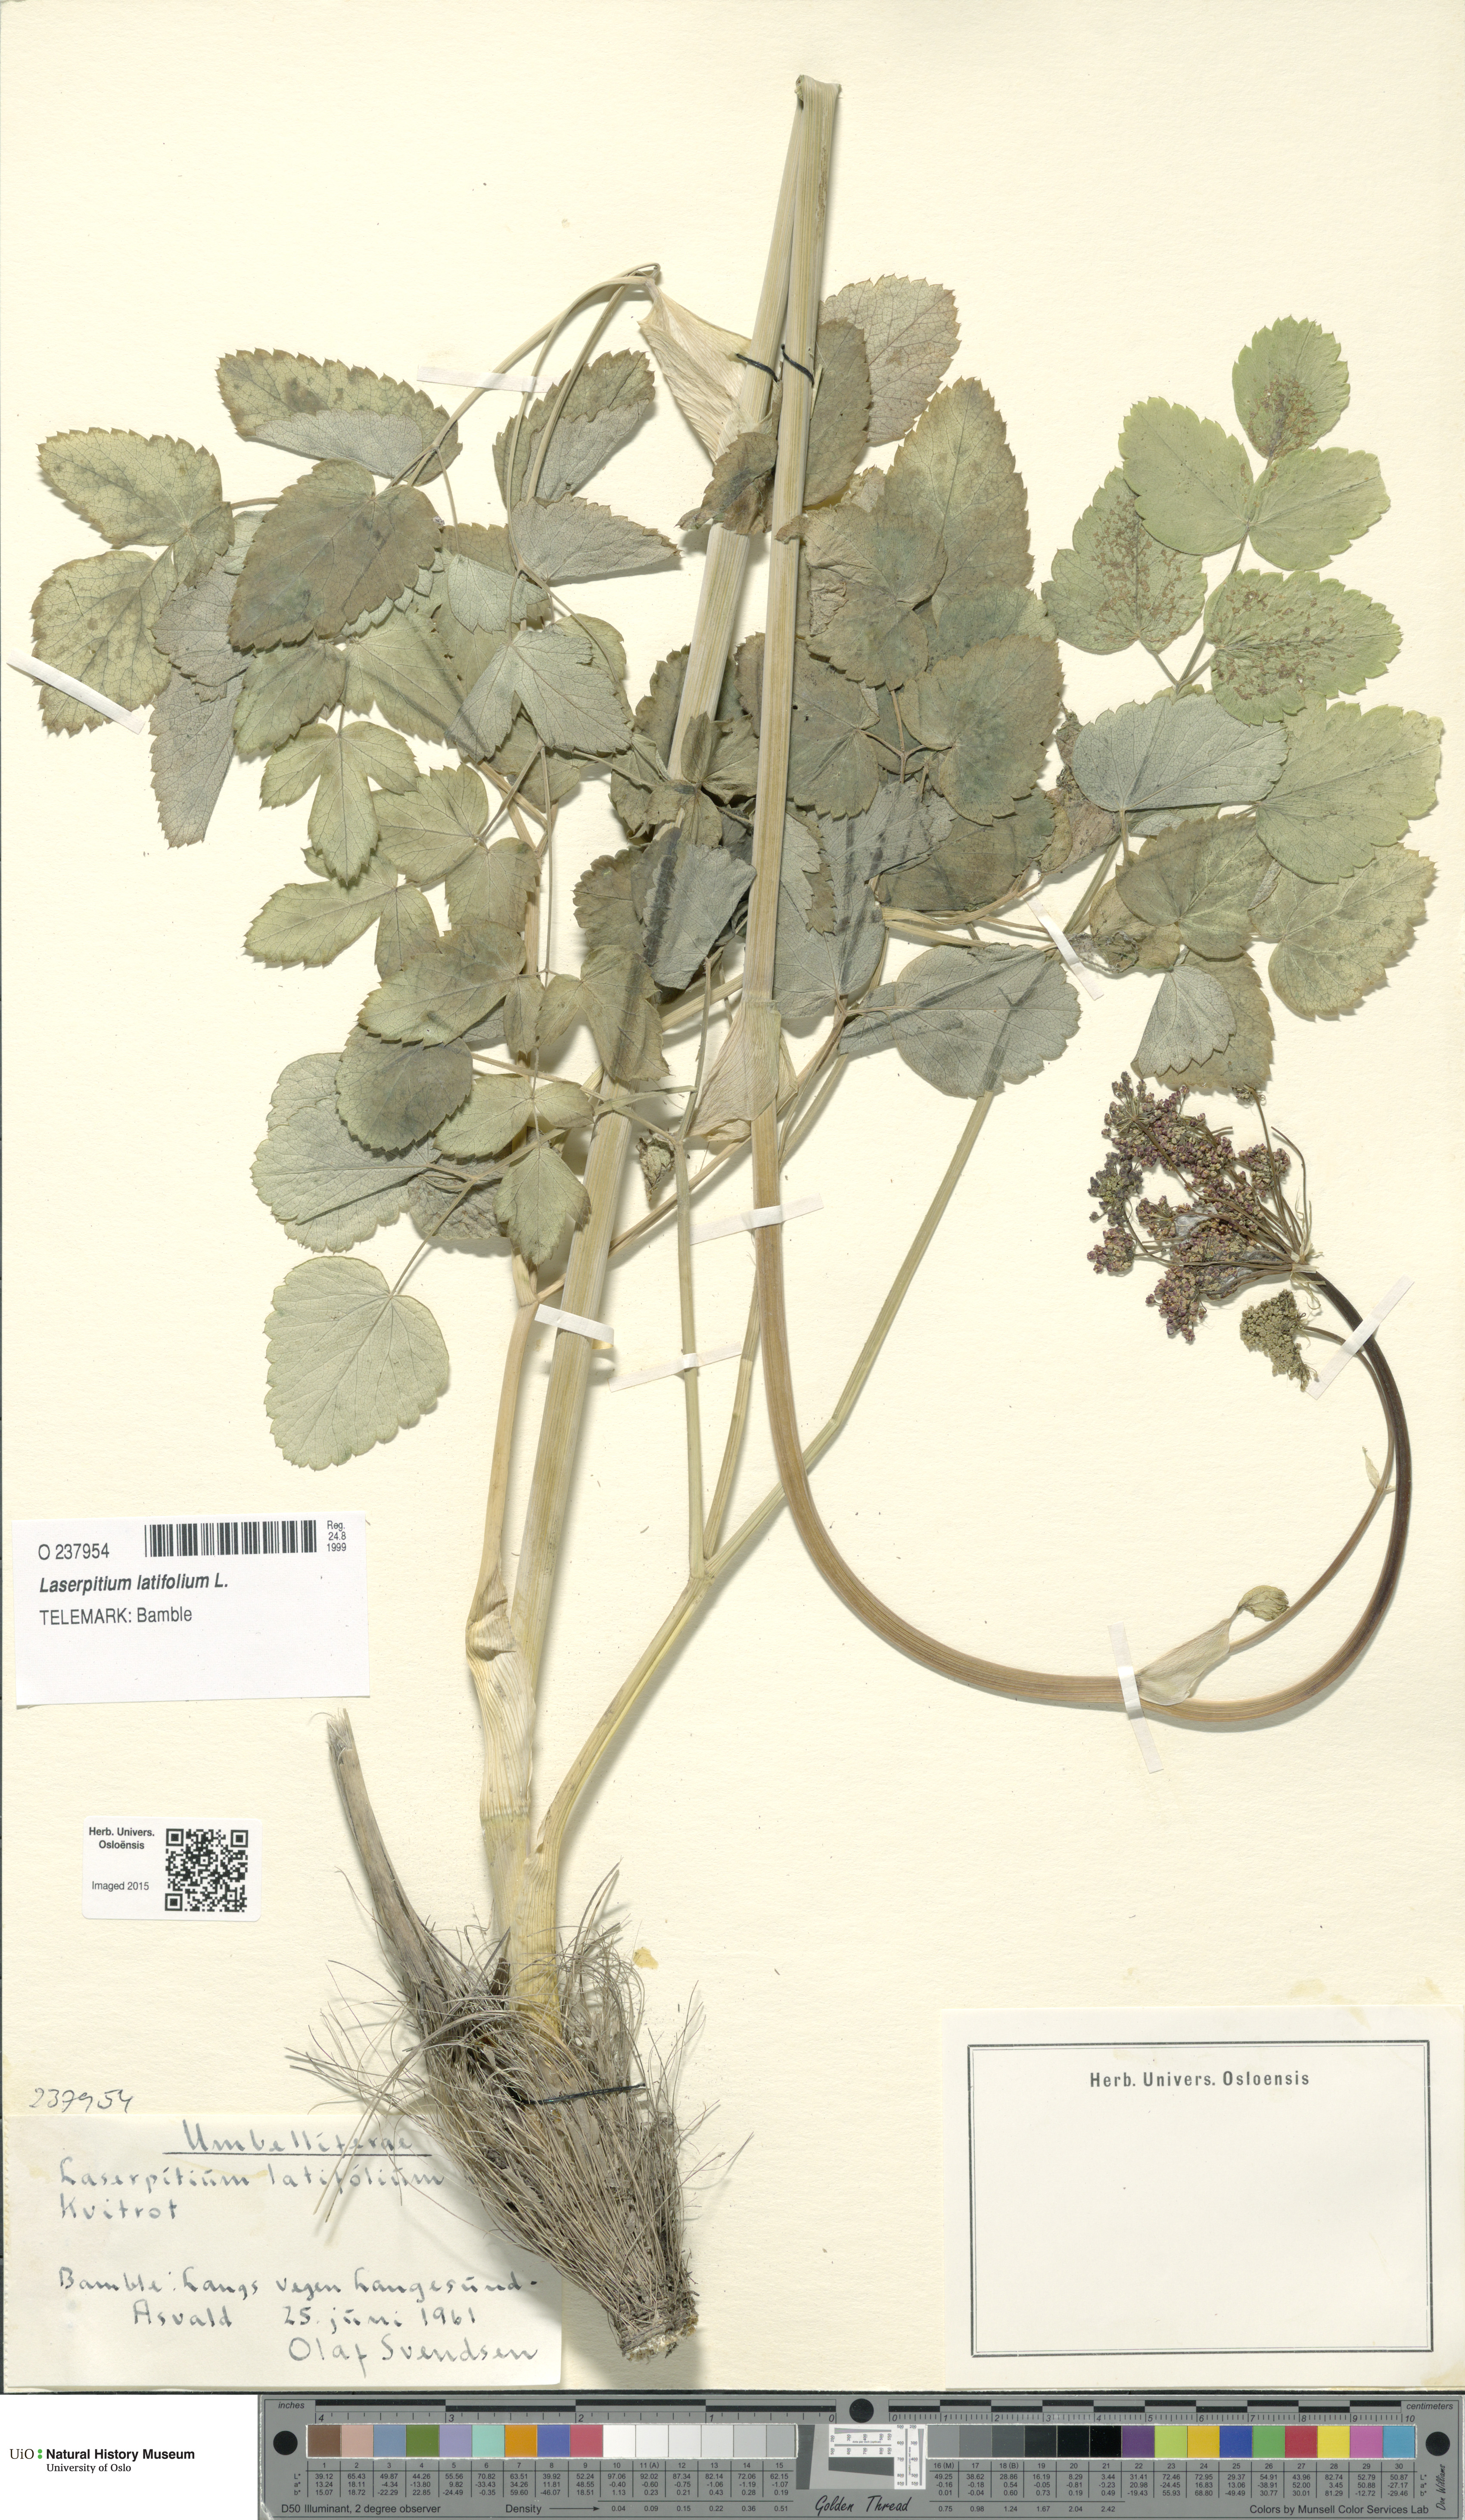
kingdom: Plantae
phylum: Tracheophyta
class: Magnoliopsida
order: Apiales
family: Apiaceae
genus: Laserpitium
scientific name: Laserpitium latifolium
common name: Broadleaf sermountain
